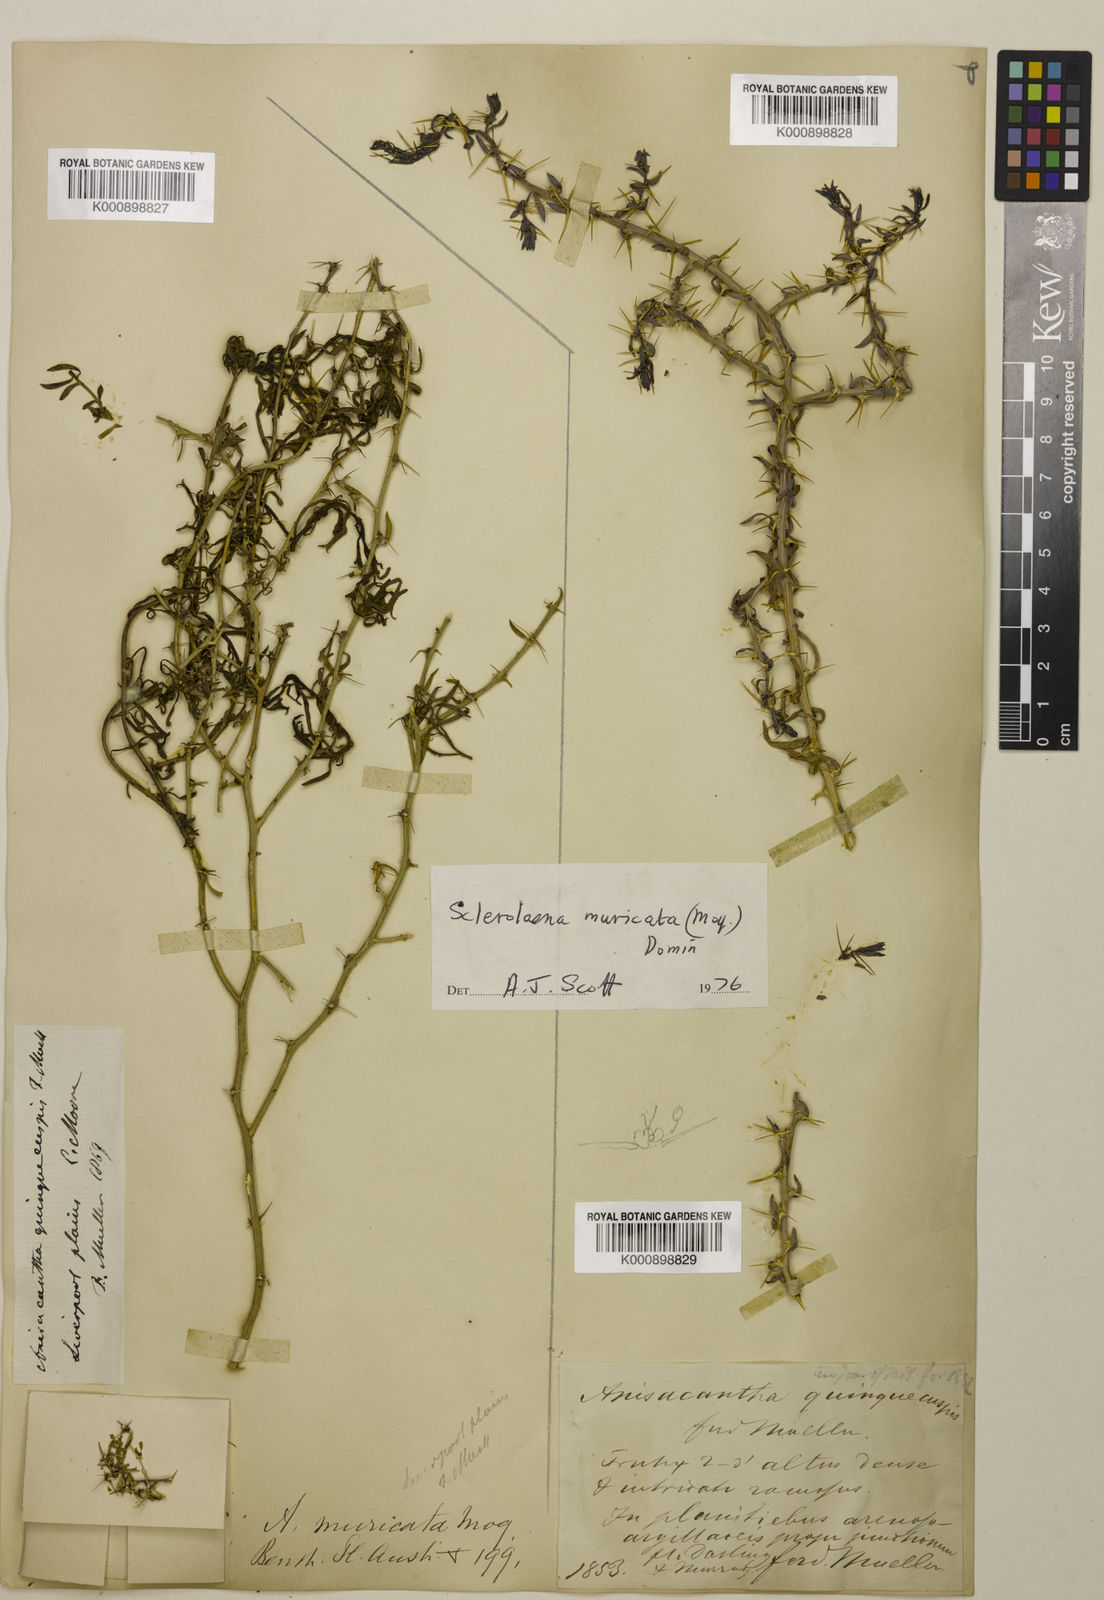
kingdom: Plantae
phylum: Tracheophyta
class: Magnoliopsida
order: Caryophyllales
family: Amaranthaceae
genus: Sclerolaena
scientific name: Sclerolaena muricata
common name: Roly-poly
